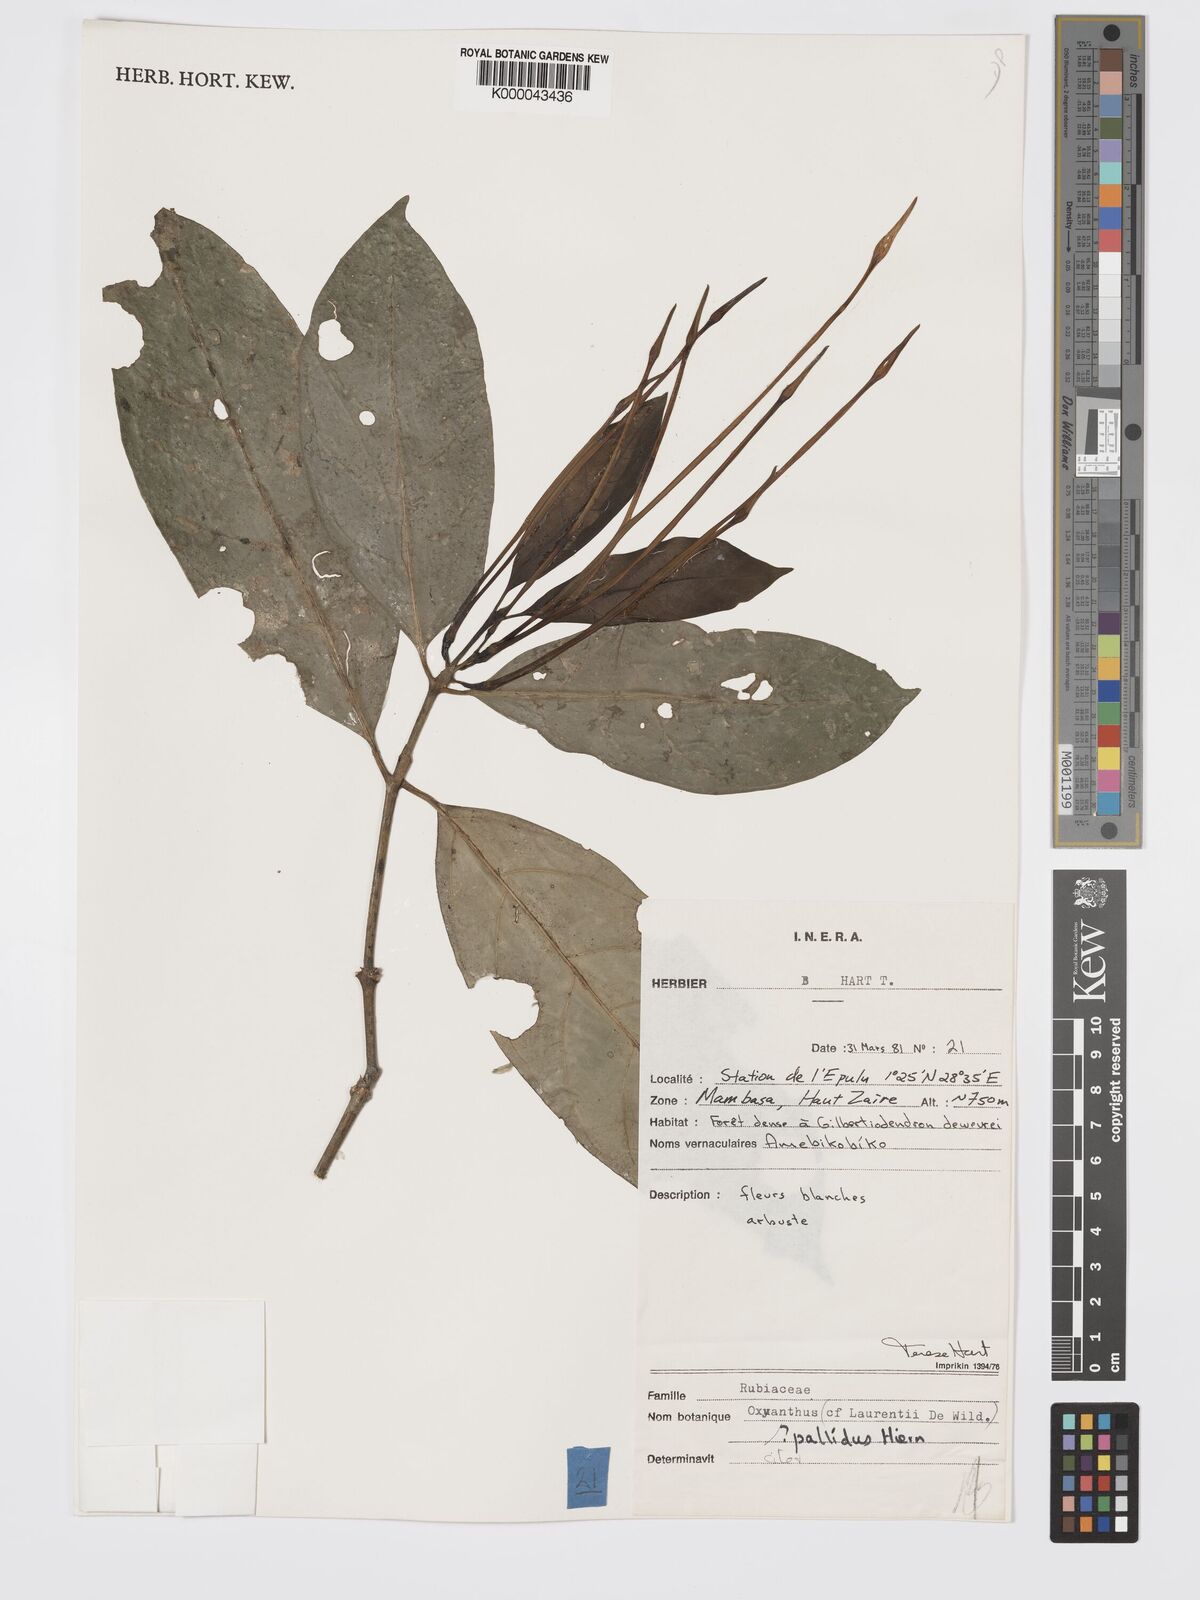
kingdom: Plantae
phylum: Tracheophyta
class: Magnoliopsida
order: Gentianales
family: Rubiaceae
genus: Oxyanthus
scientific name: Oxyanthus pallidus
